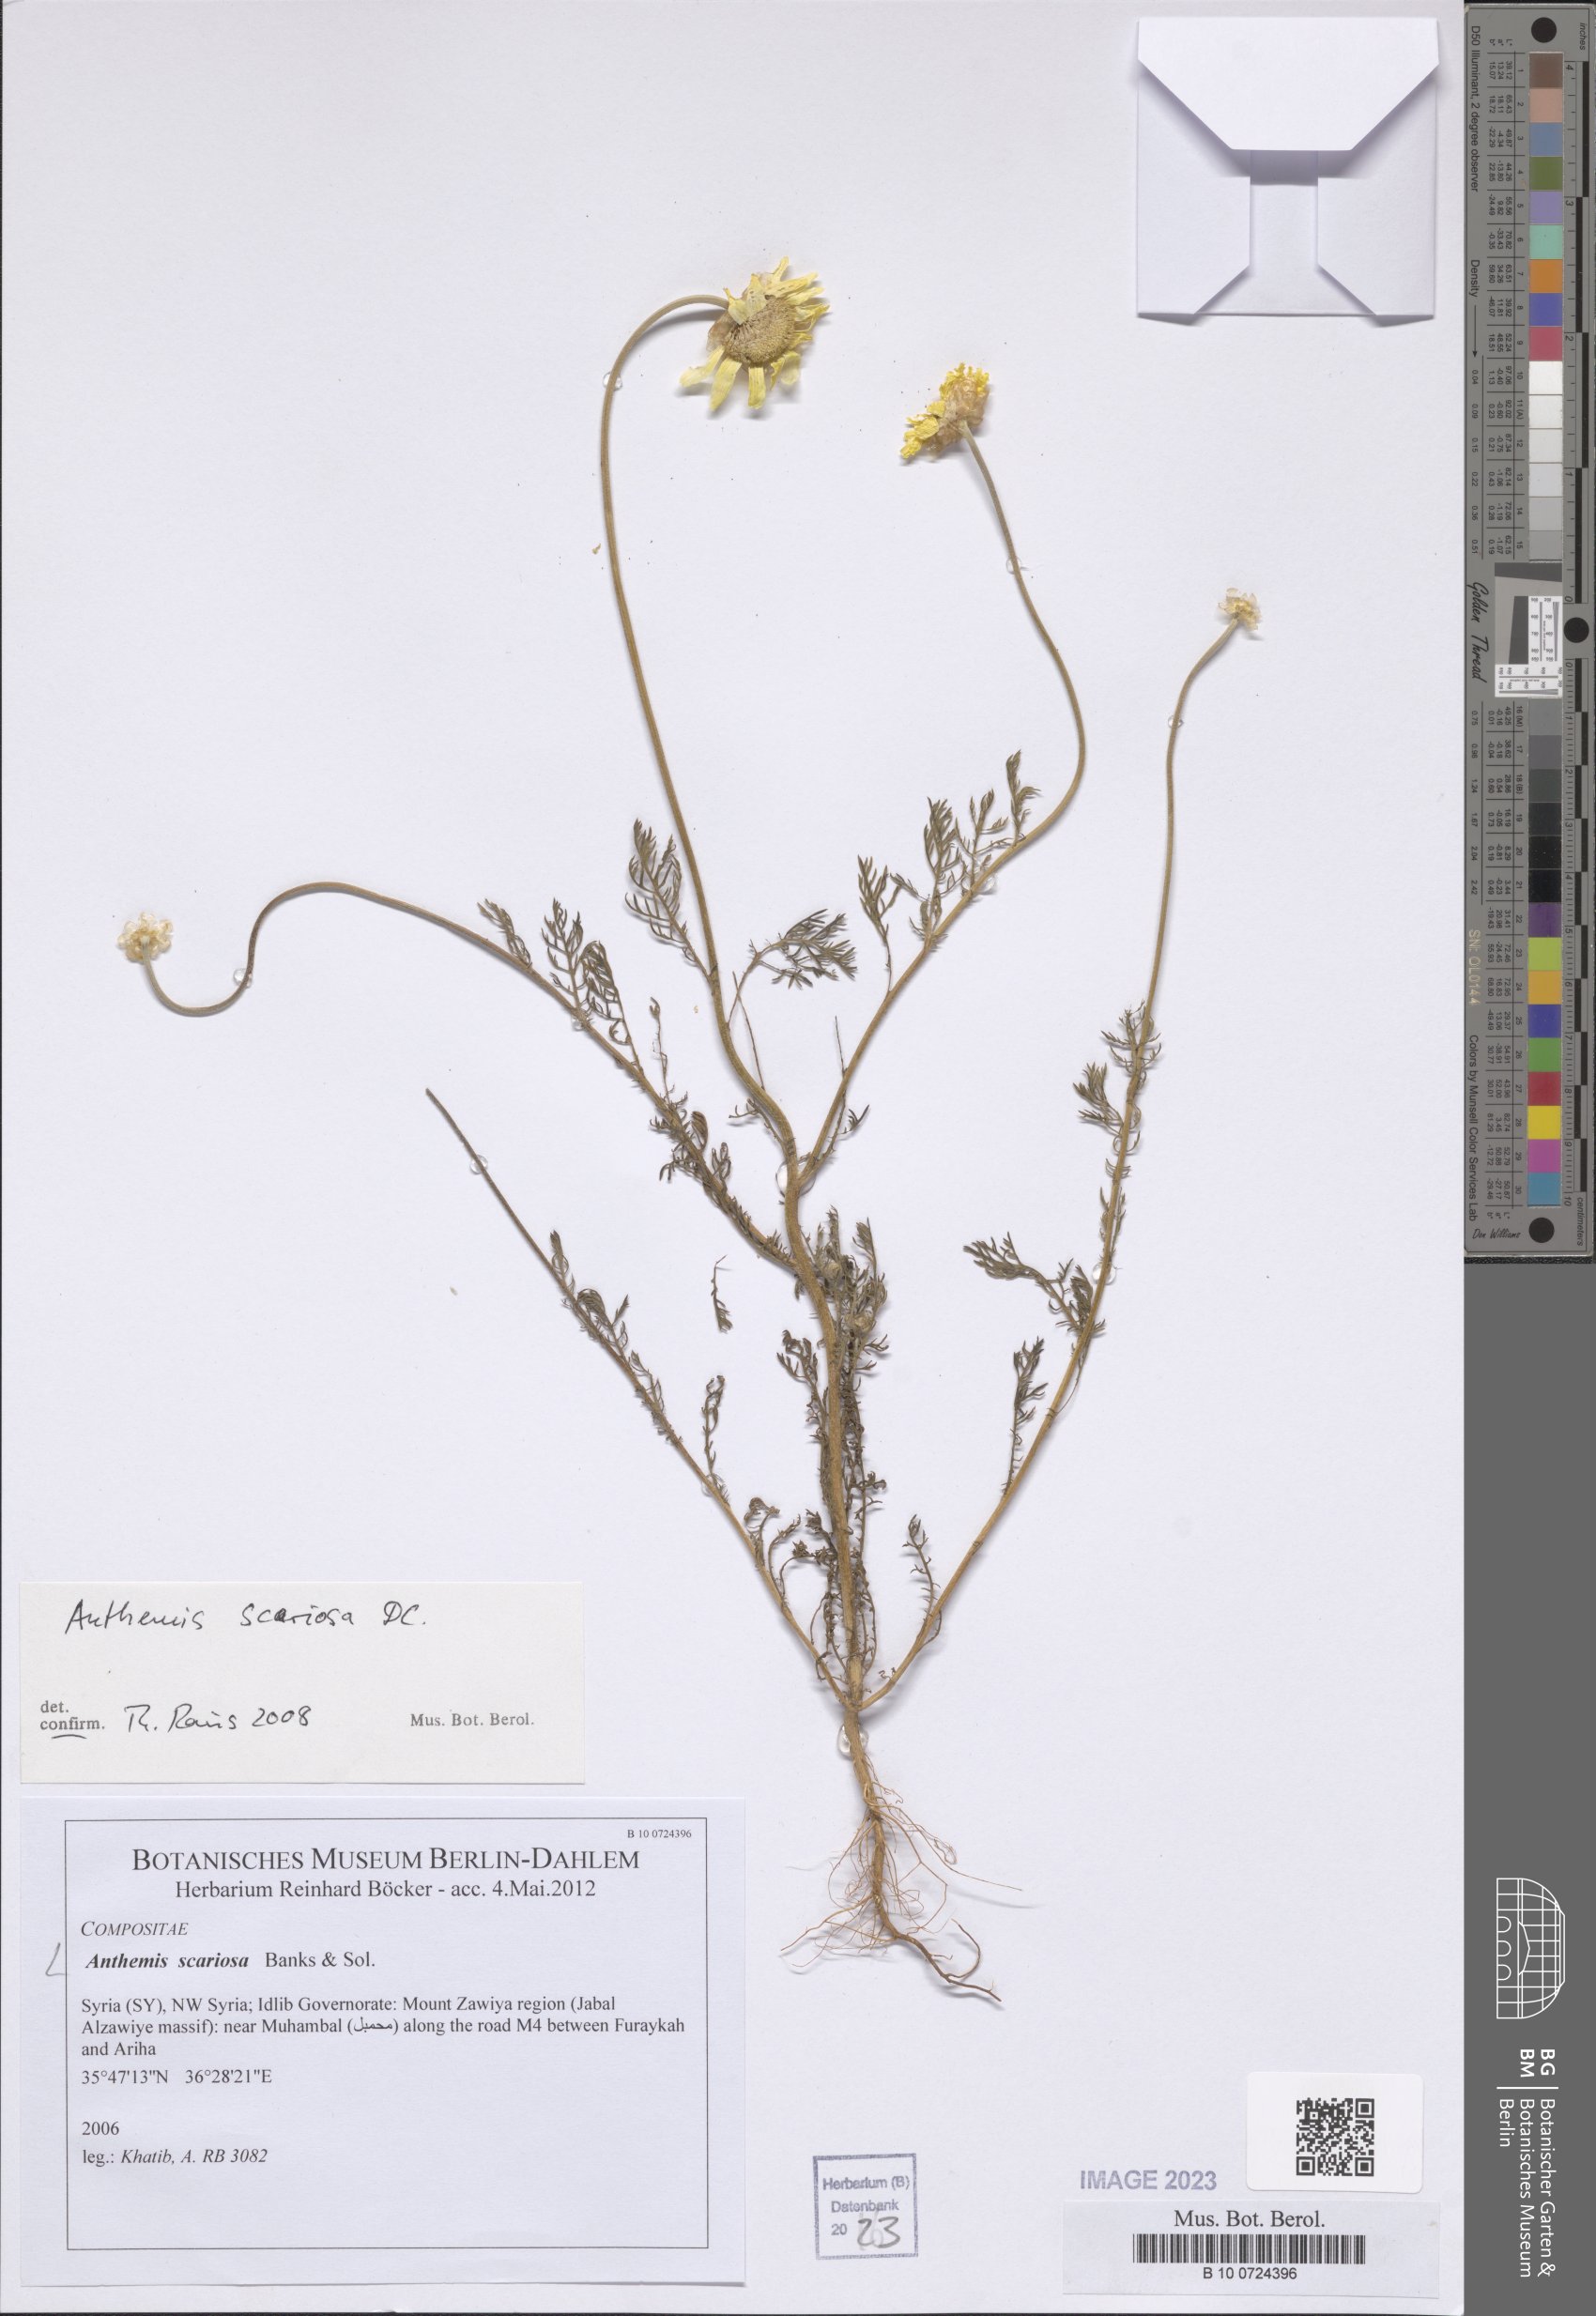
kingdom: Plantae
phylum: Tracheophyta
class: Magnoliopsida
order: Asterales
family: Asteraceae
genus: Anthemis
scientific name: Anthemis scariosa
